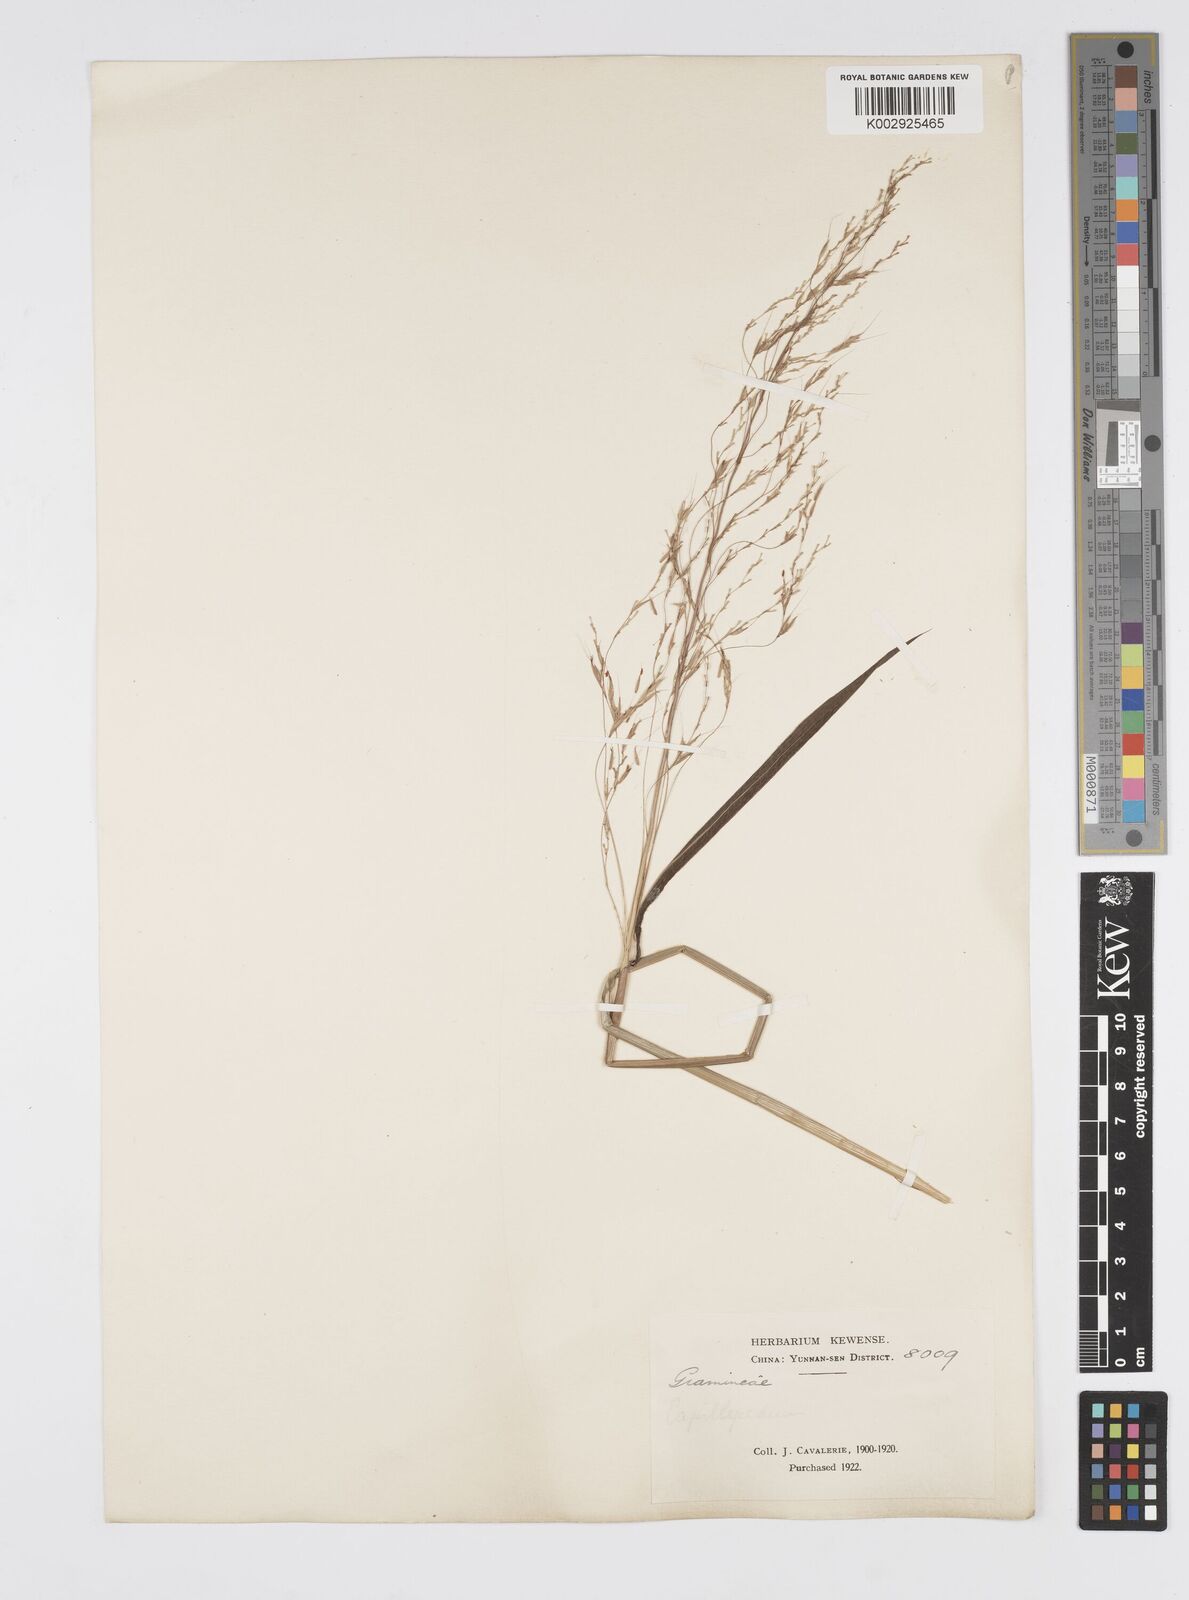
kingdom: Plantae
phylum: Tracheophyta
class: Liliopsida
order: Poales
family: Poaceae
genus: Spodiopogon
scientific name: Spodiopogon cotulifer
